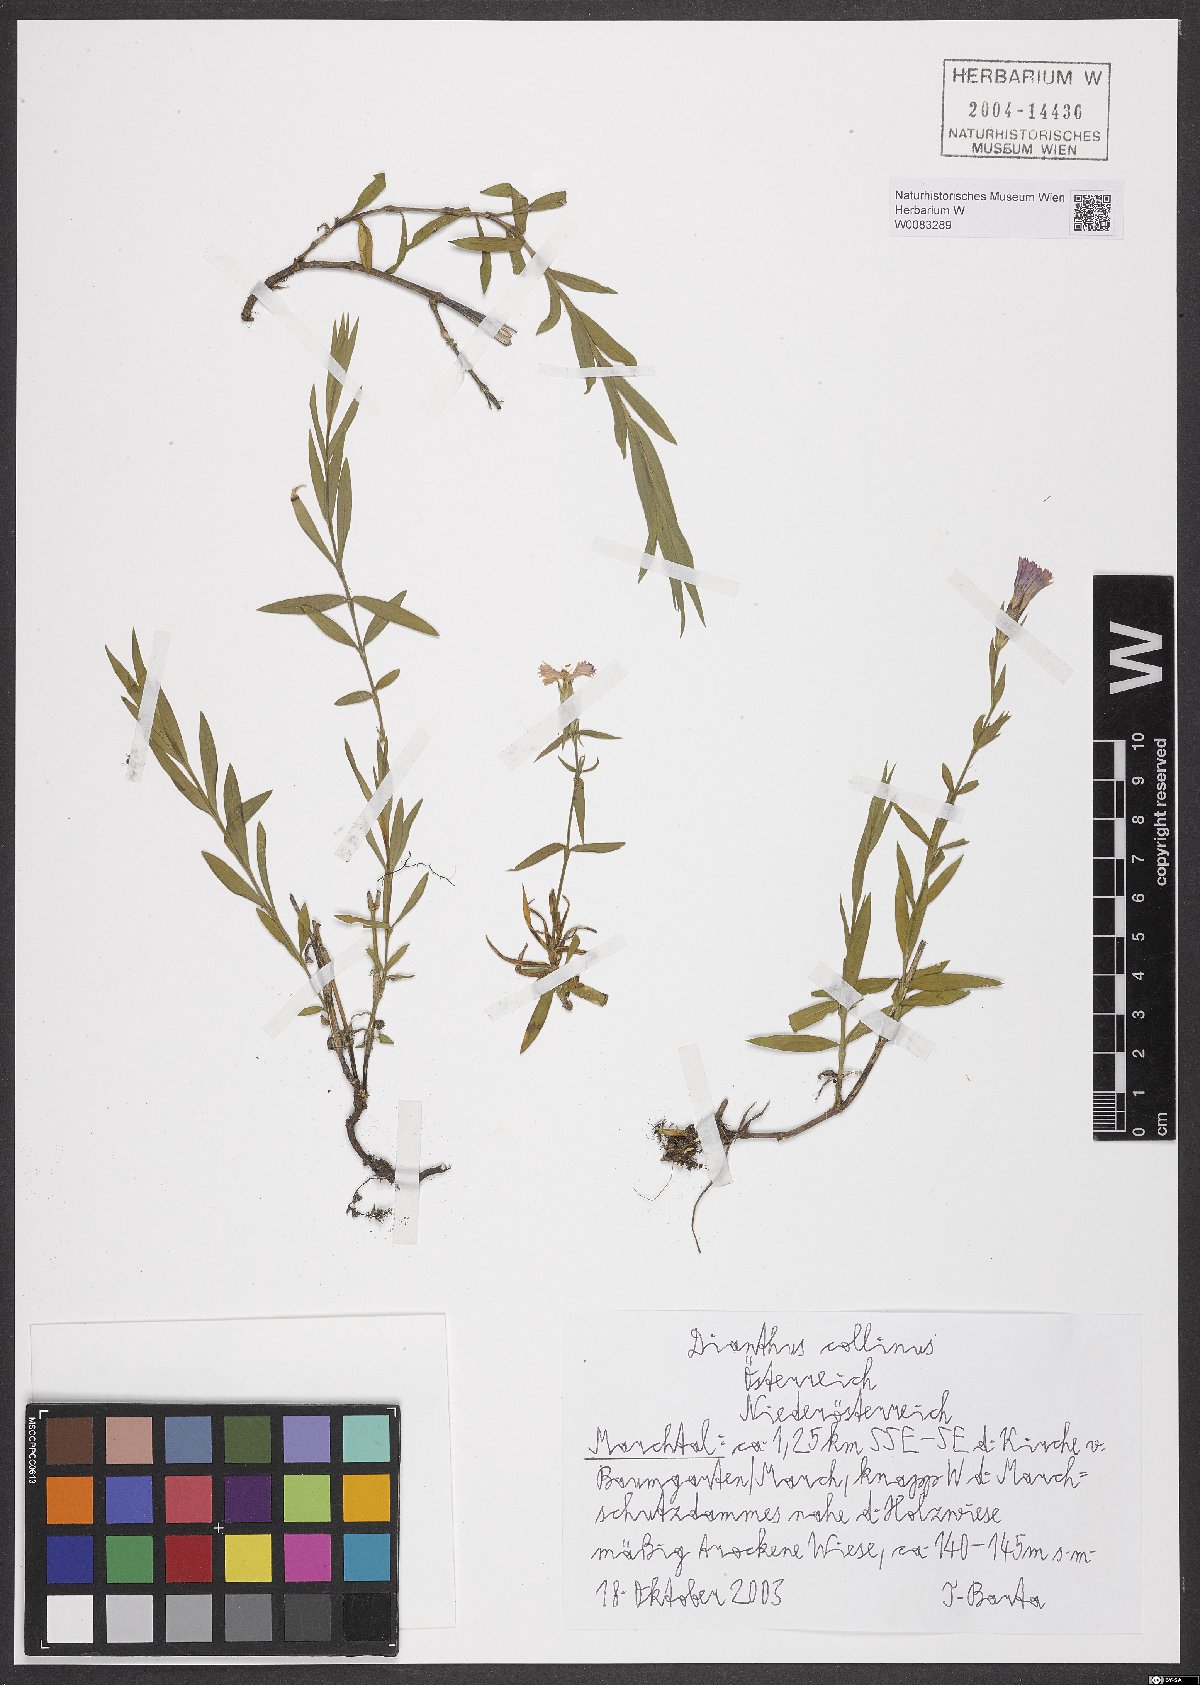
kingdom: Plantae
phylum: Tracheophyta
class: Magnoliopsida
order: Caryophyllales
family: Caryophyllaceae
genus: Dianthus
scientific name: Dianthus collinus
